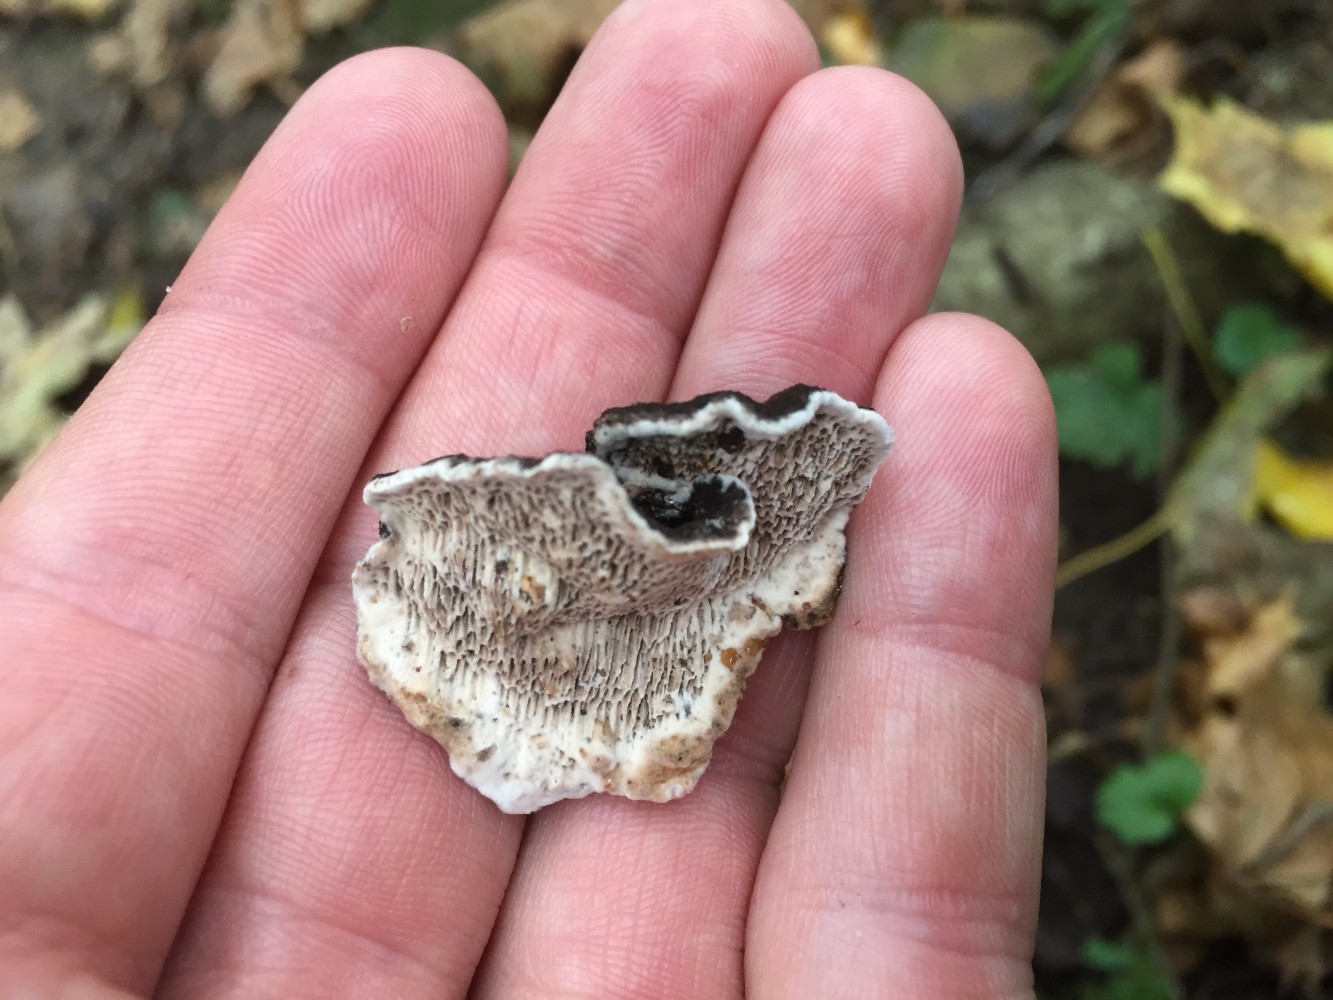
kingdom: Fungi
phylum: Basidiomycota
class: Agaricomycetes
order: Polyporales
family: Polyporaceae
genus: Podofomes
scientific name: Podofomes mollis
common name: blød begporesvamp
